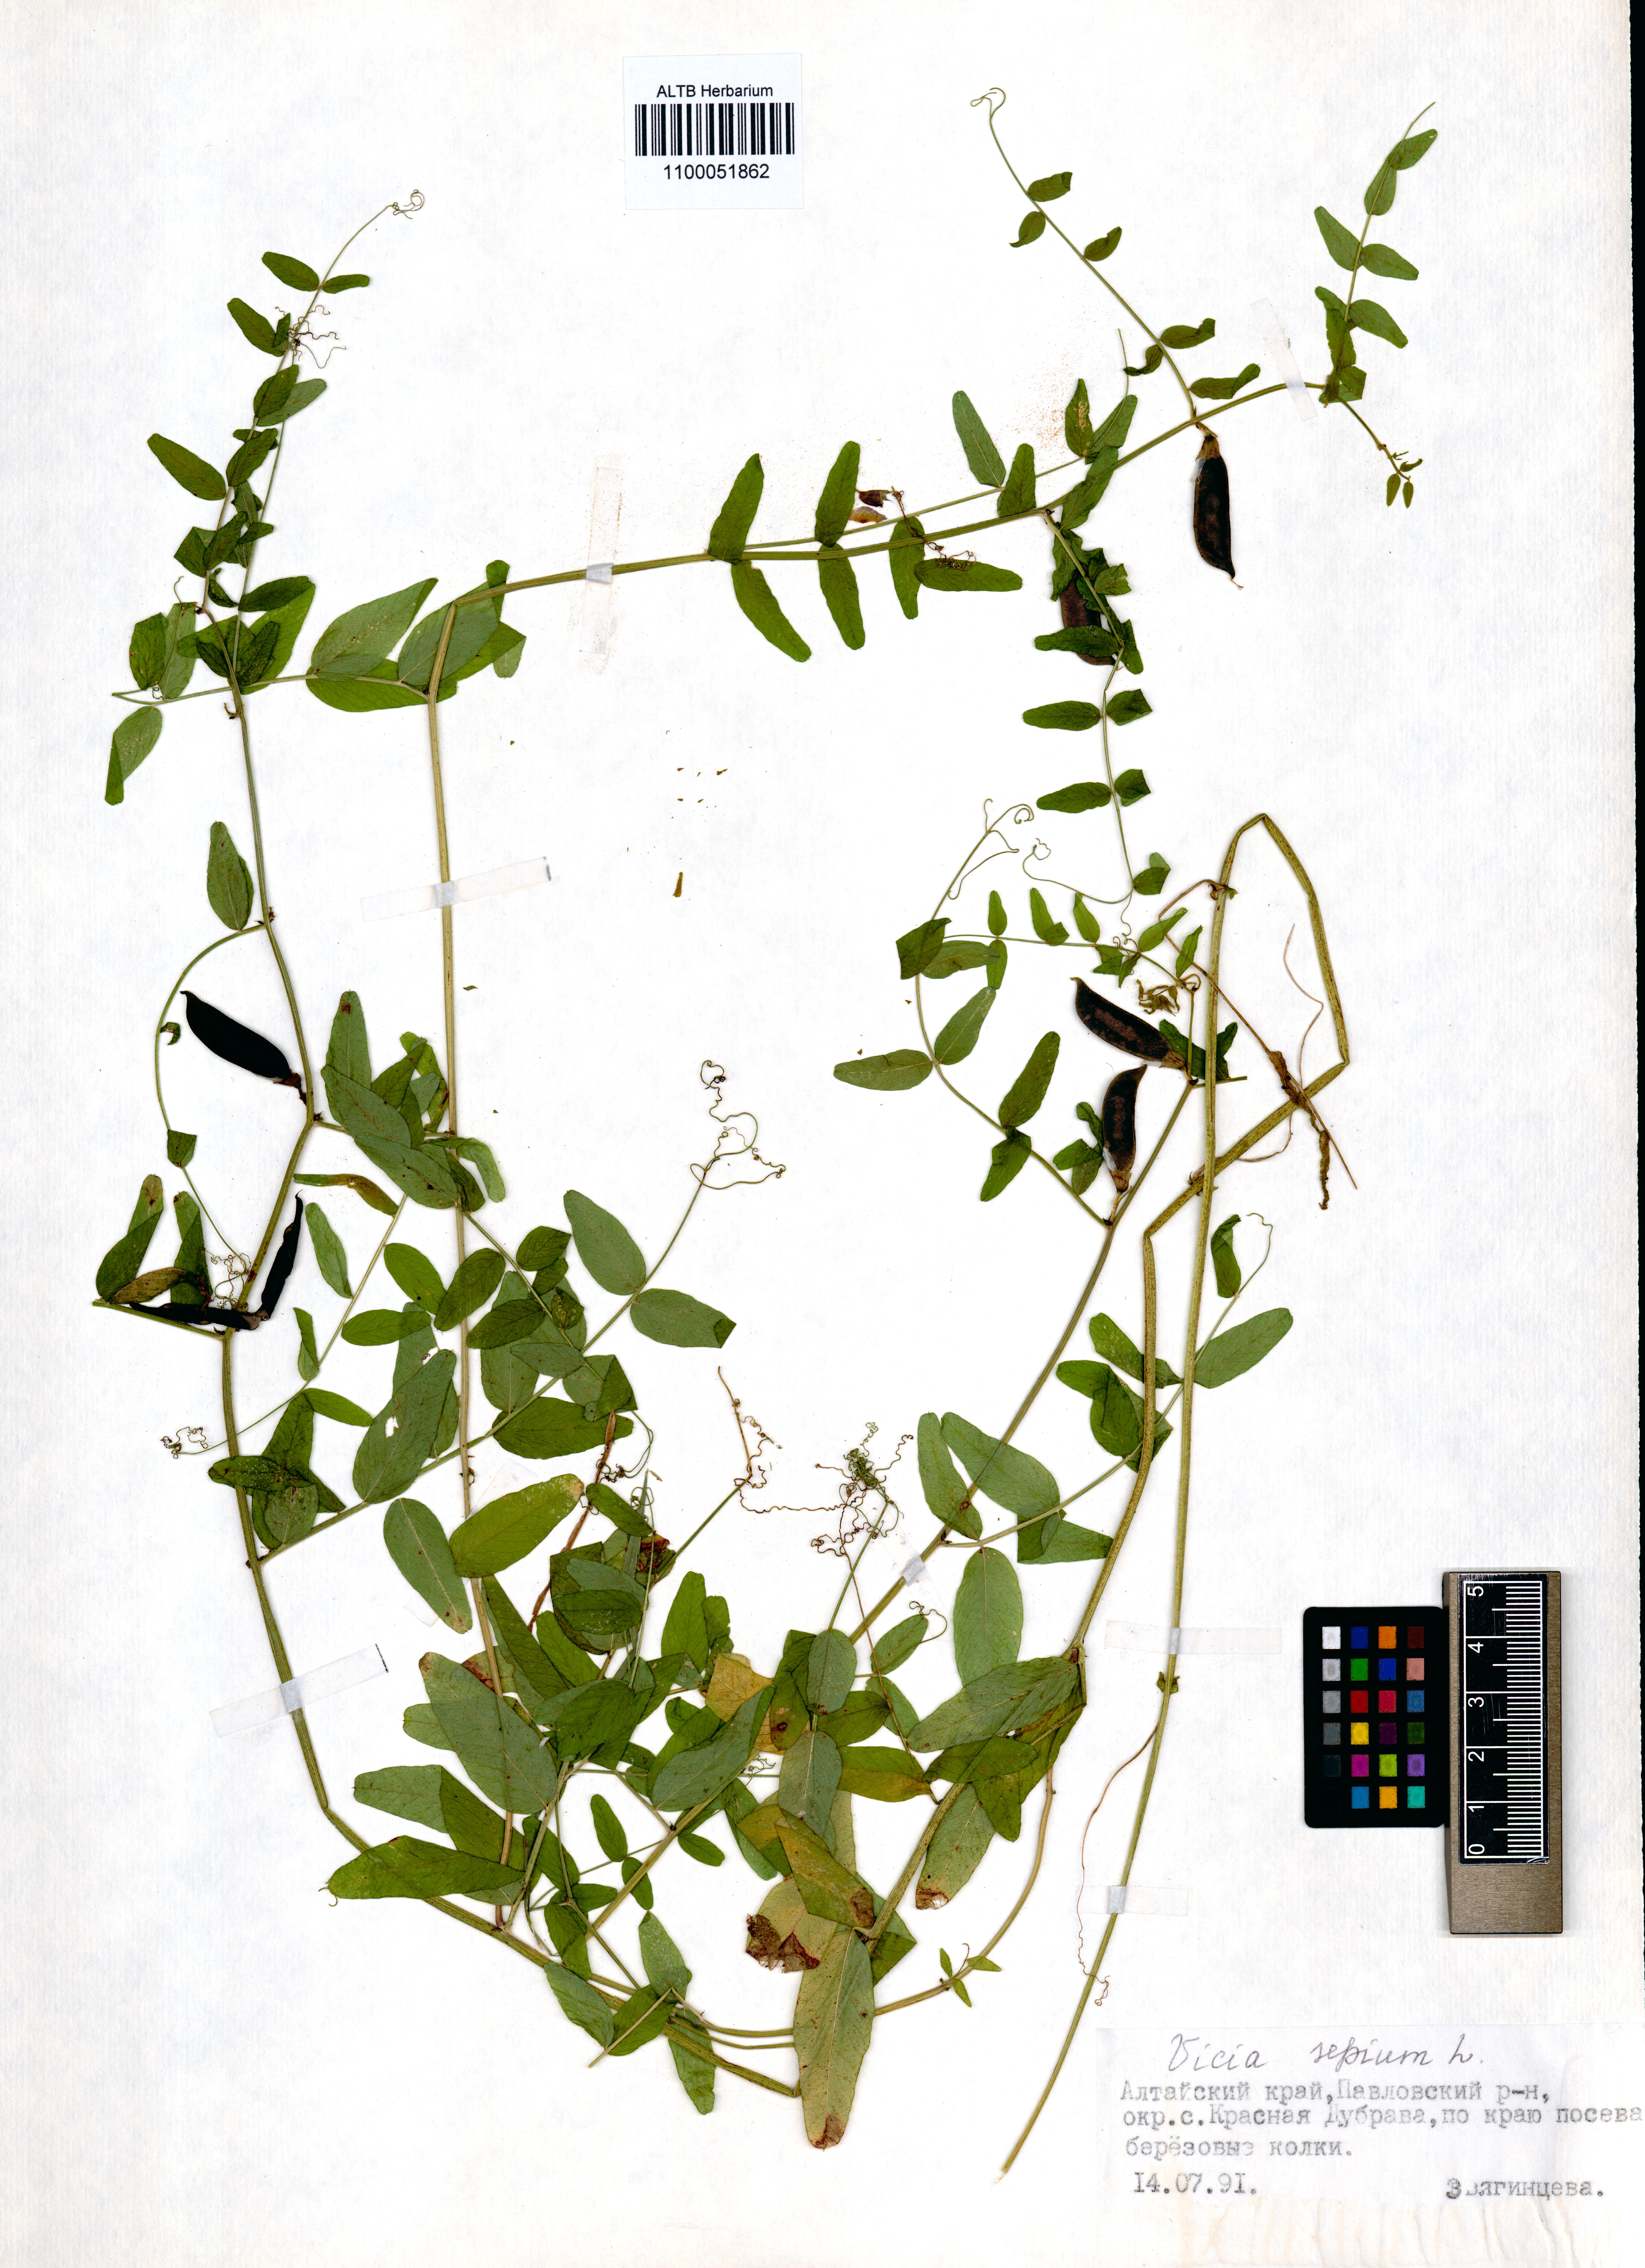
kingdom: Plantae
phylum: Tracheophyta
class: Magnoliopsida
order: Fabales
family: Fabaceae
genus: Vicia
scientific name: Vicia sepium
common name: Bush vetch
